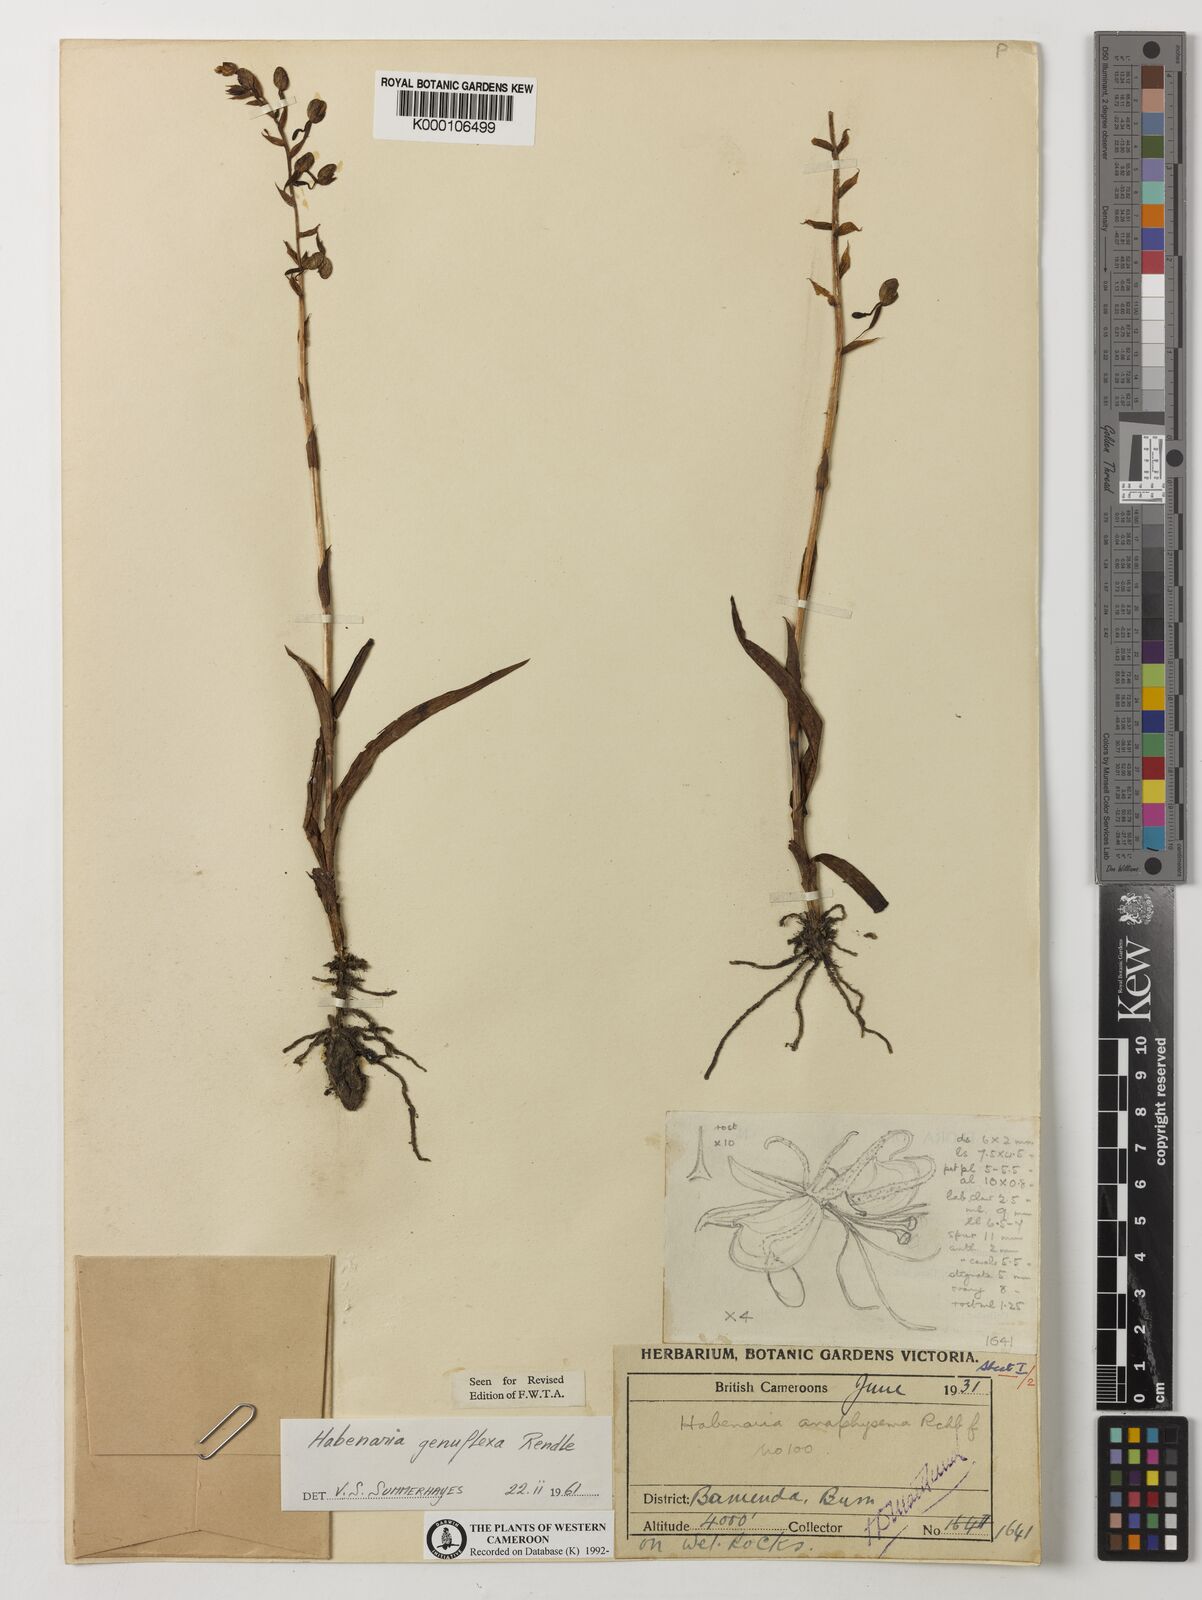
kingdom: Plantae
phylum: Tracheophyta
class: Liliopsida
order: Asparagales
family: Orchidaceae
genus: Habenaria
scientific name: Habenaria genuflexa
